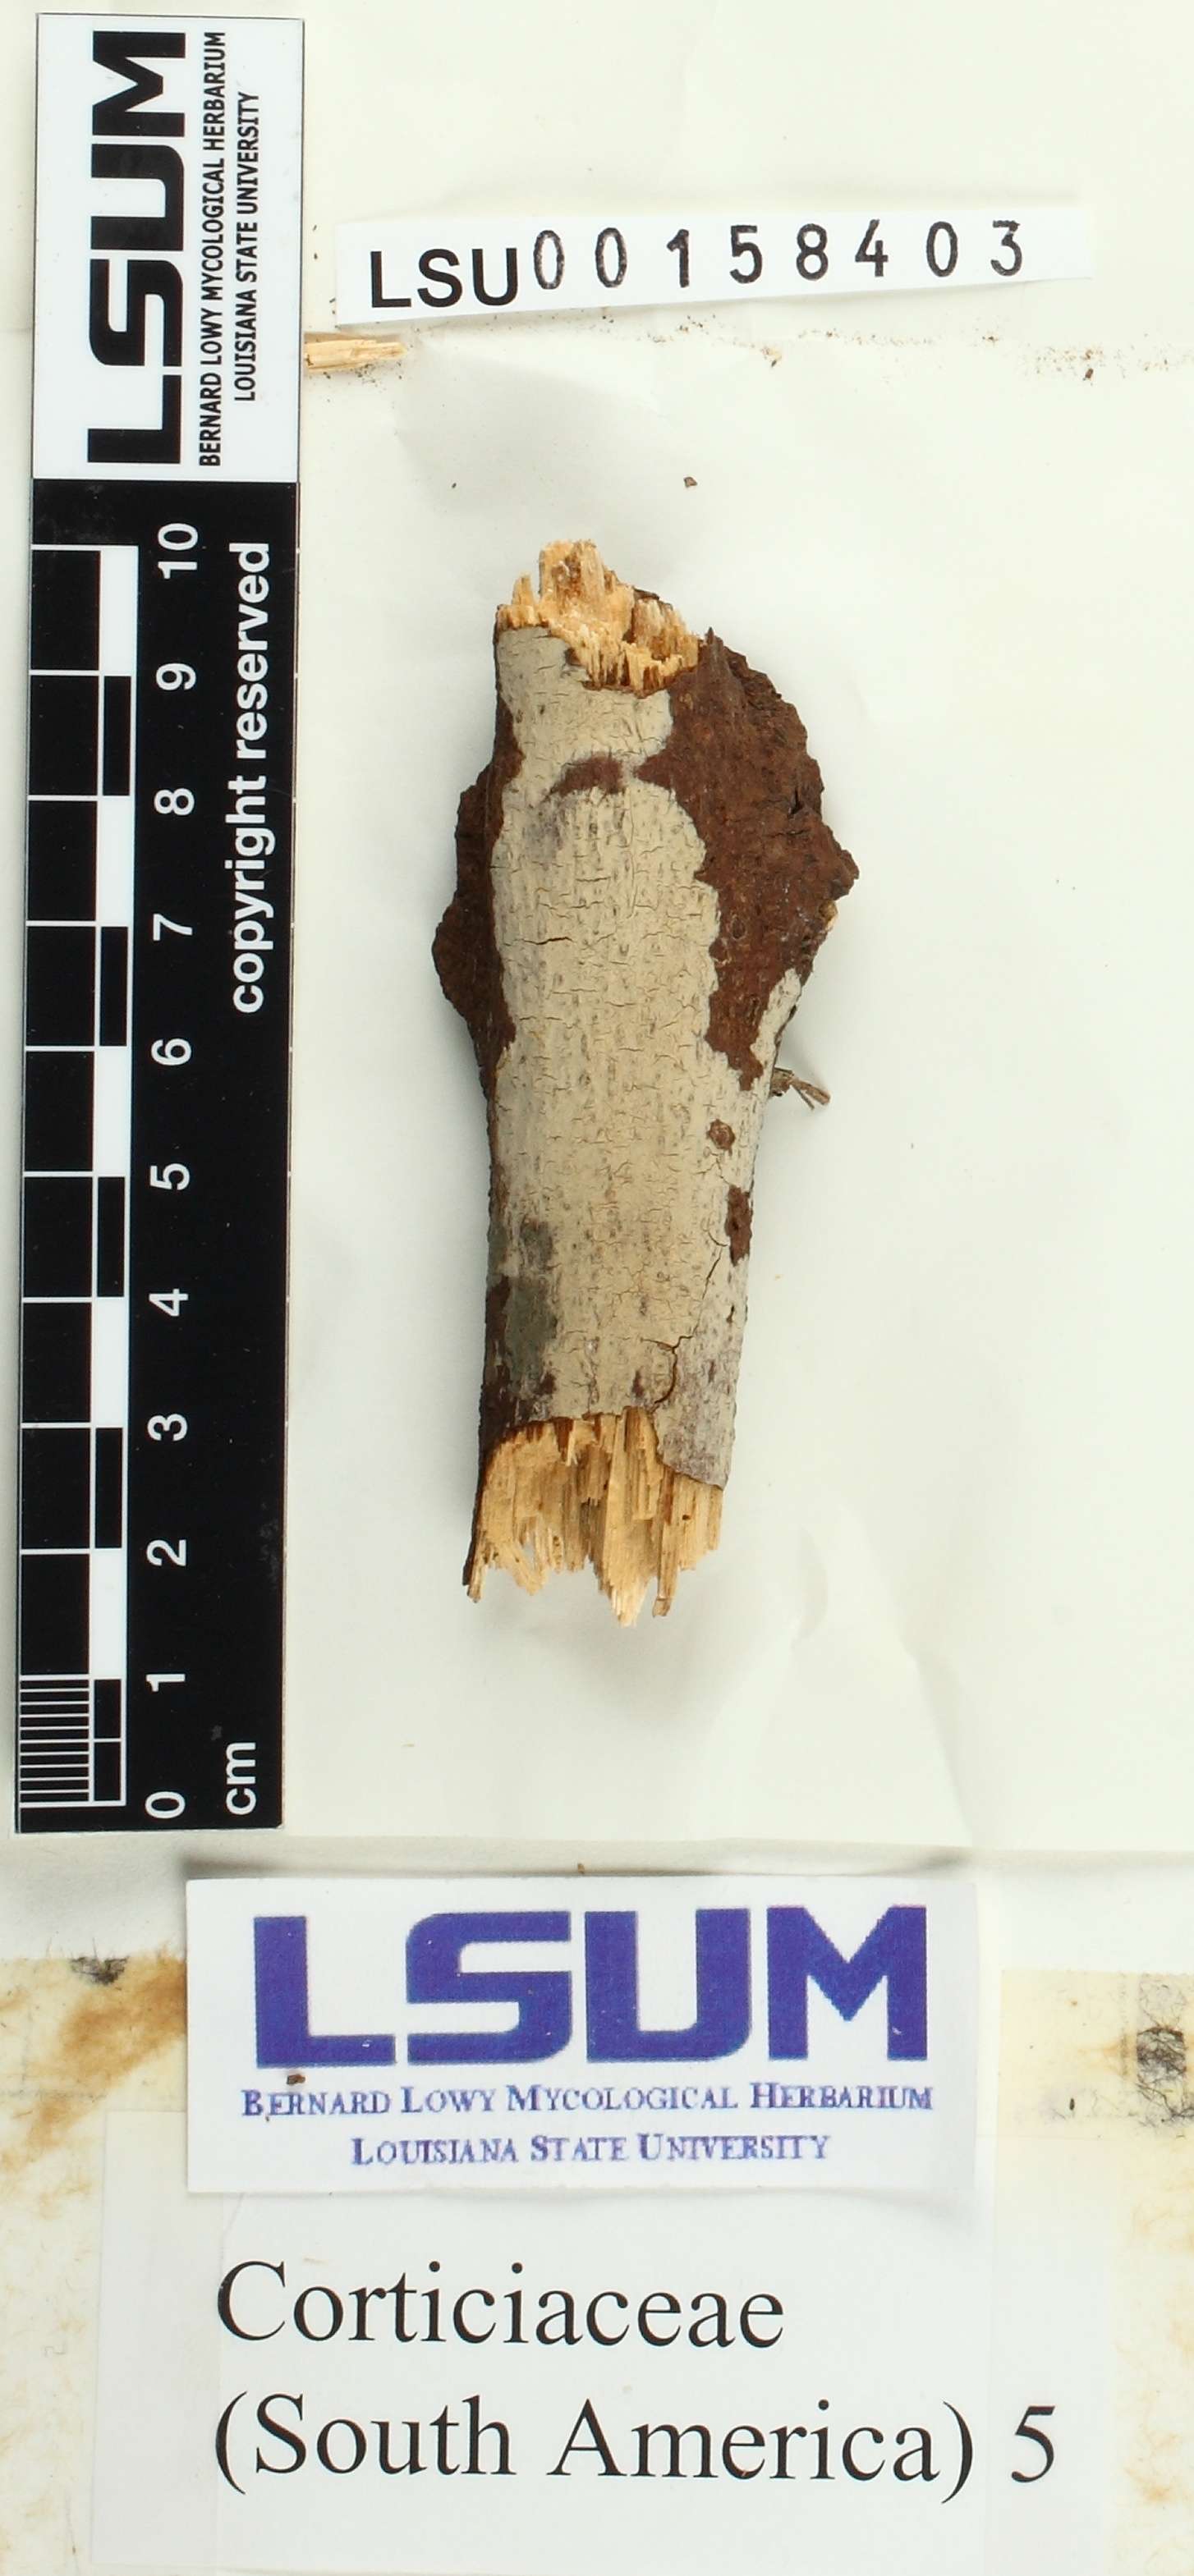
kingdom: Fungi
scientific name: Fungi
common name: Fungi
